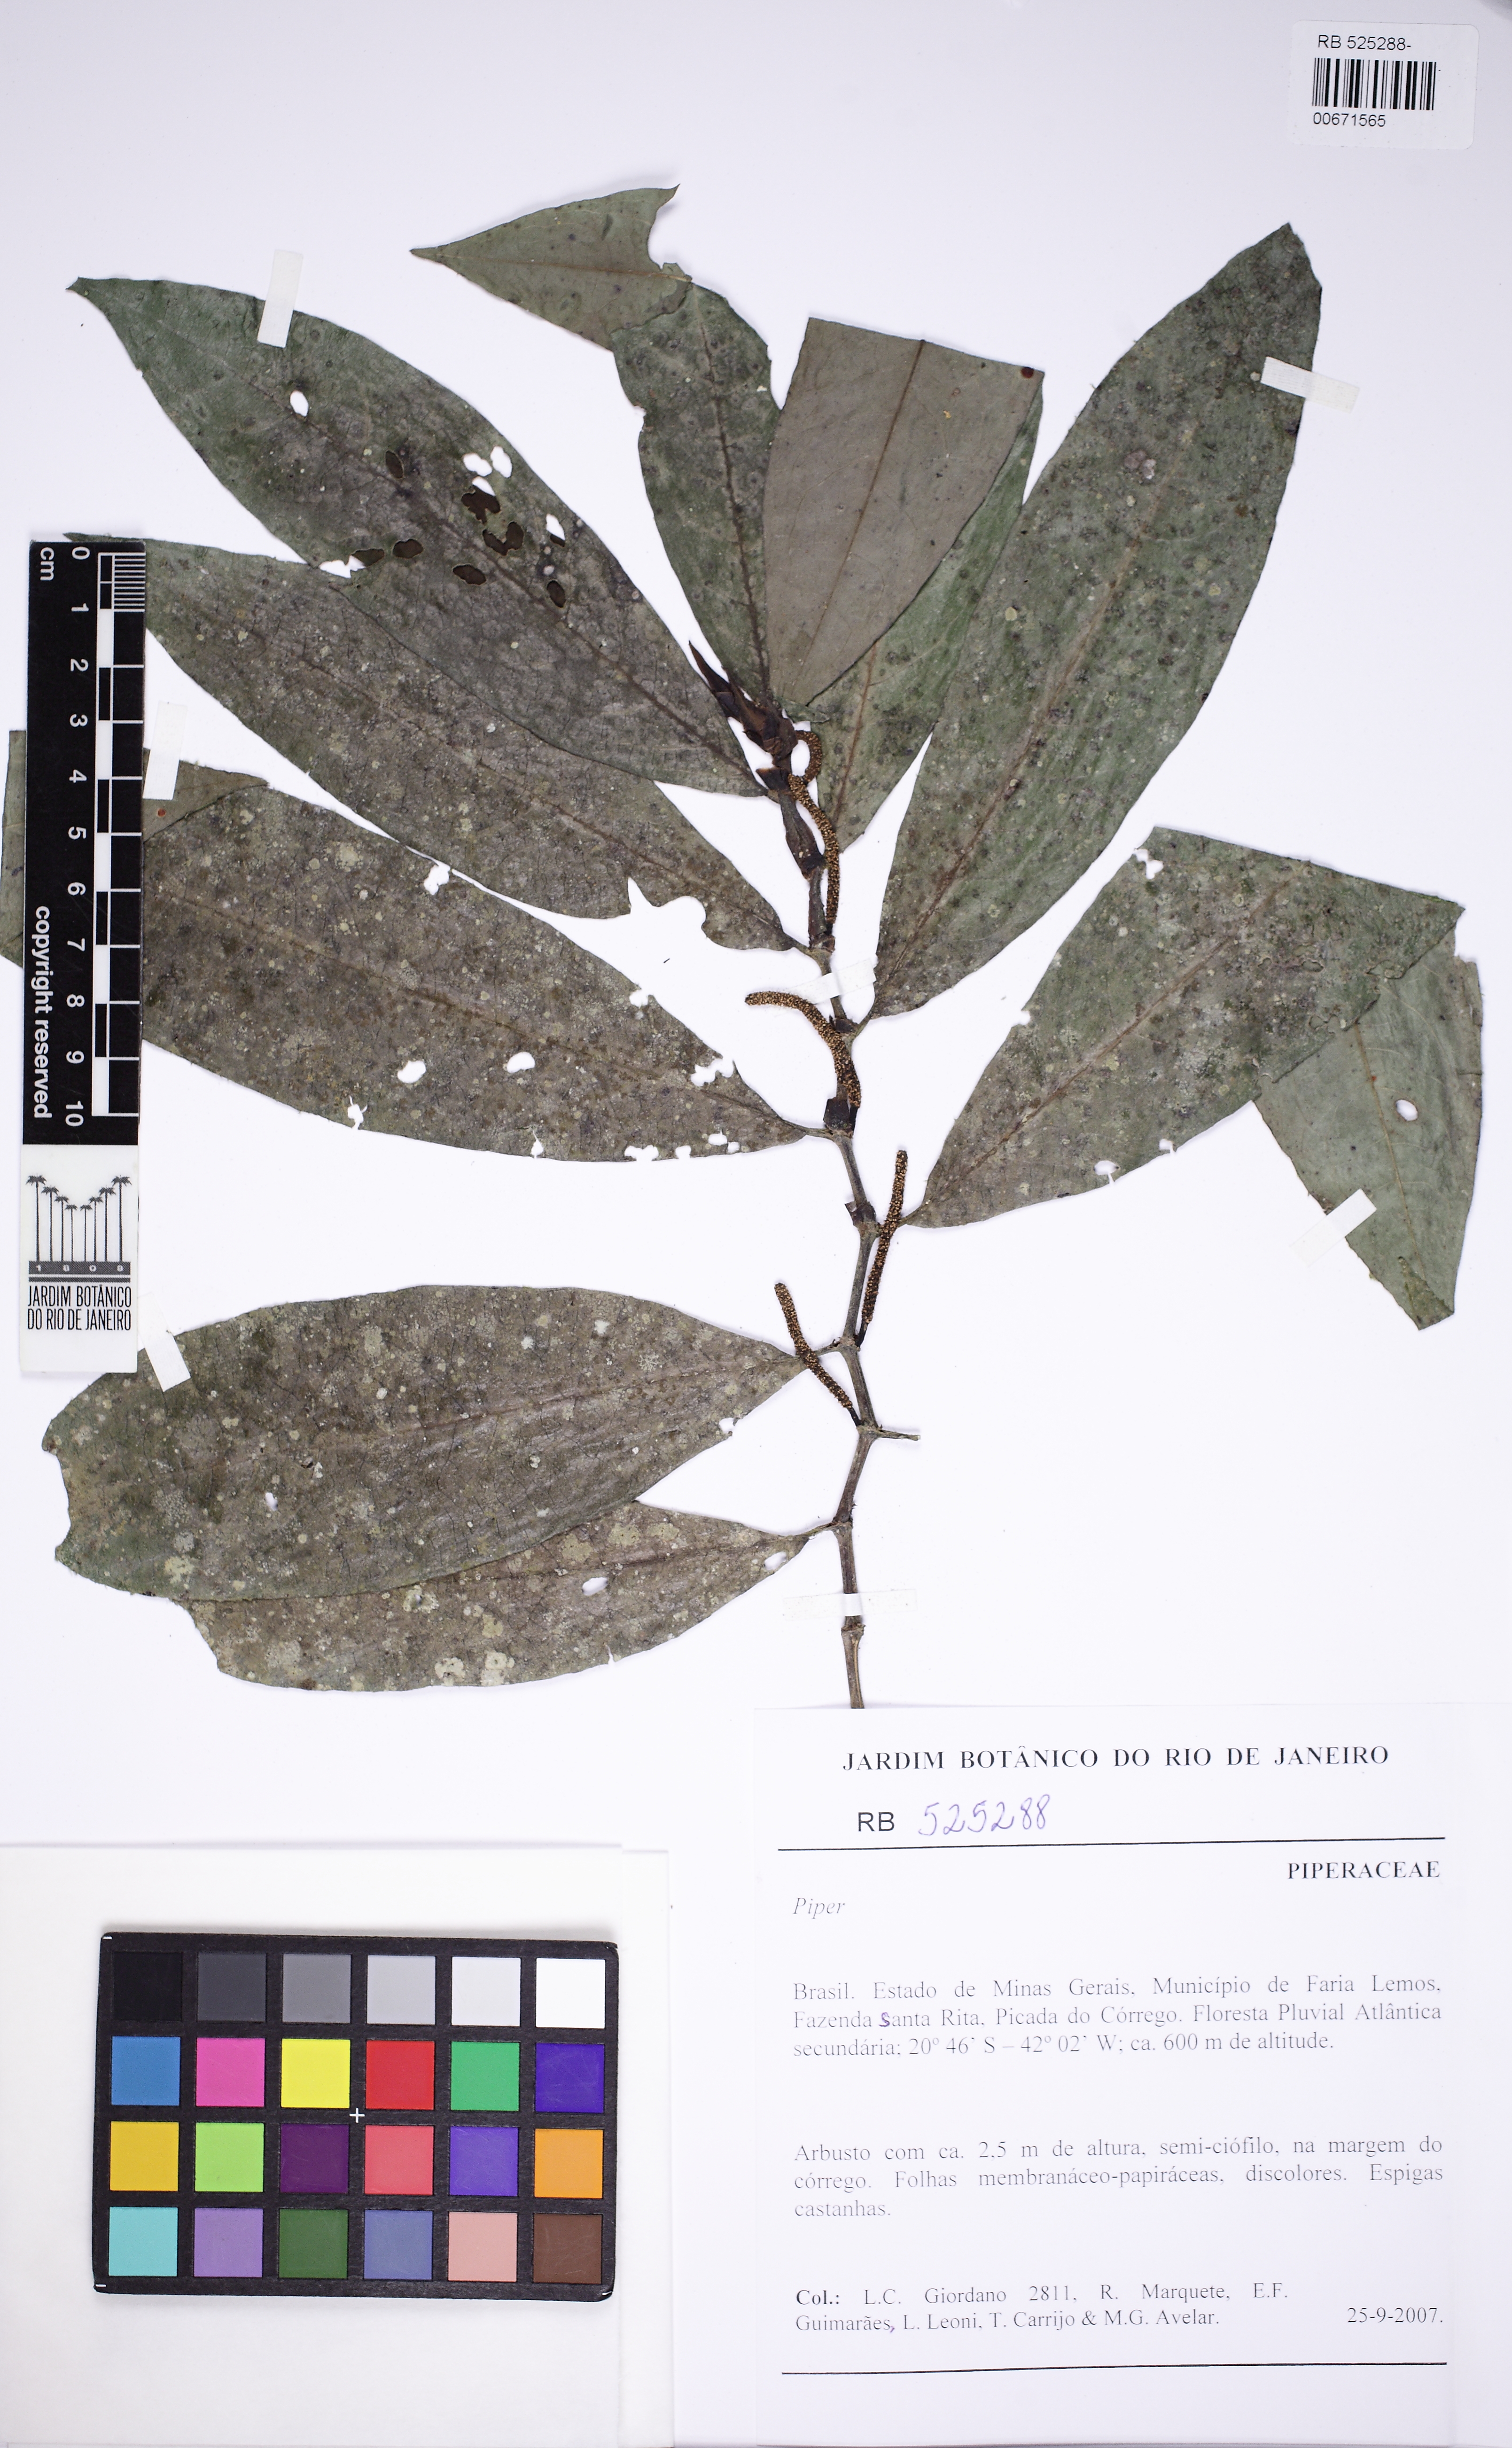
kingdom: Plantae
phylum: Tracheophyta
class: Magnoliopsida
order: Piperales
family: Piperaceae
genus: Piper
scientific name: Piper amparoense
